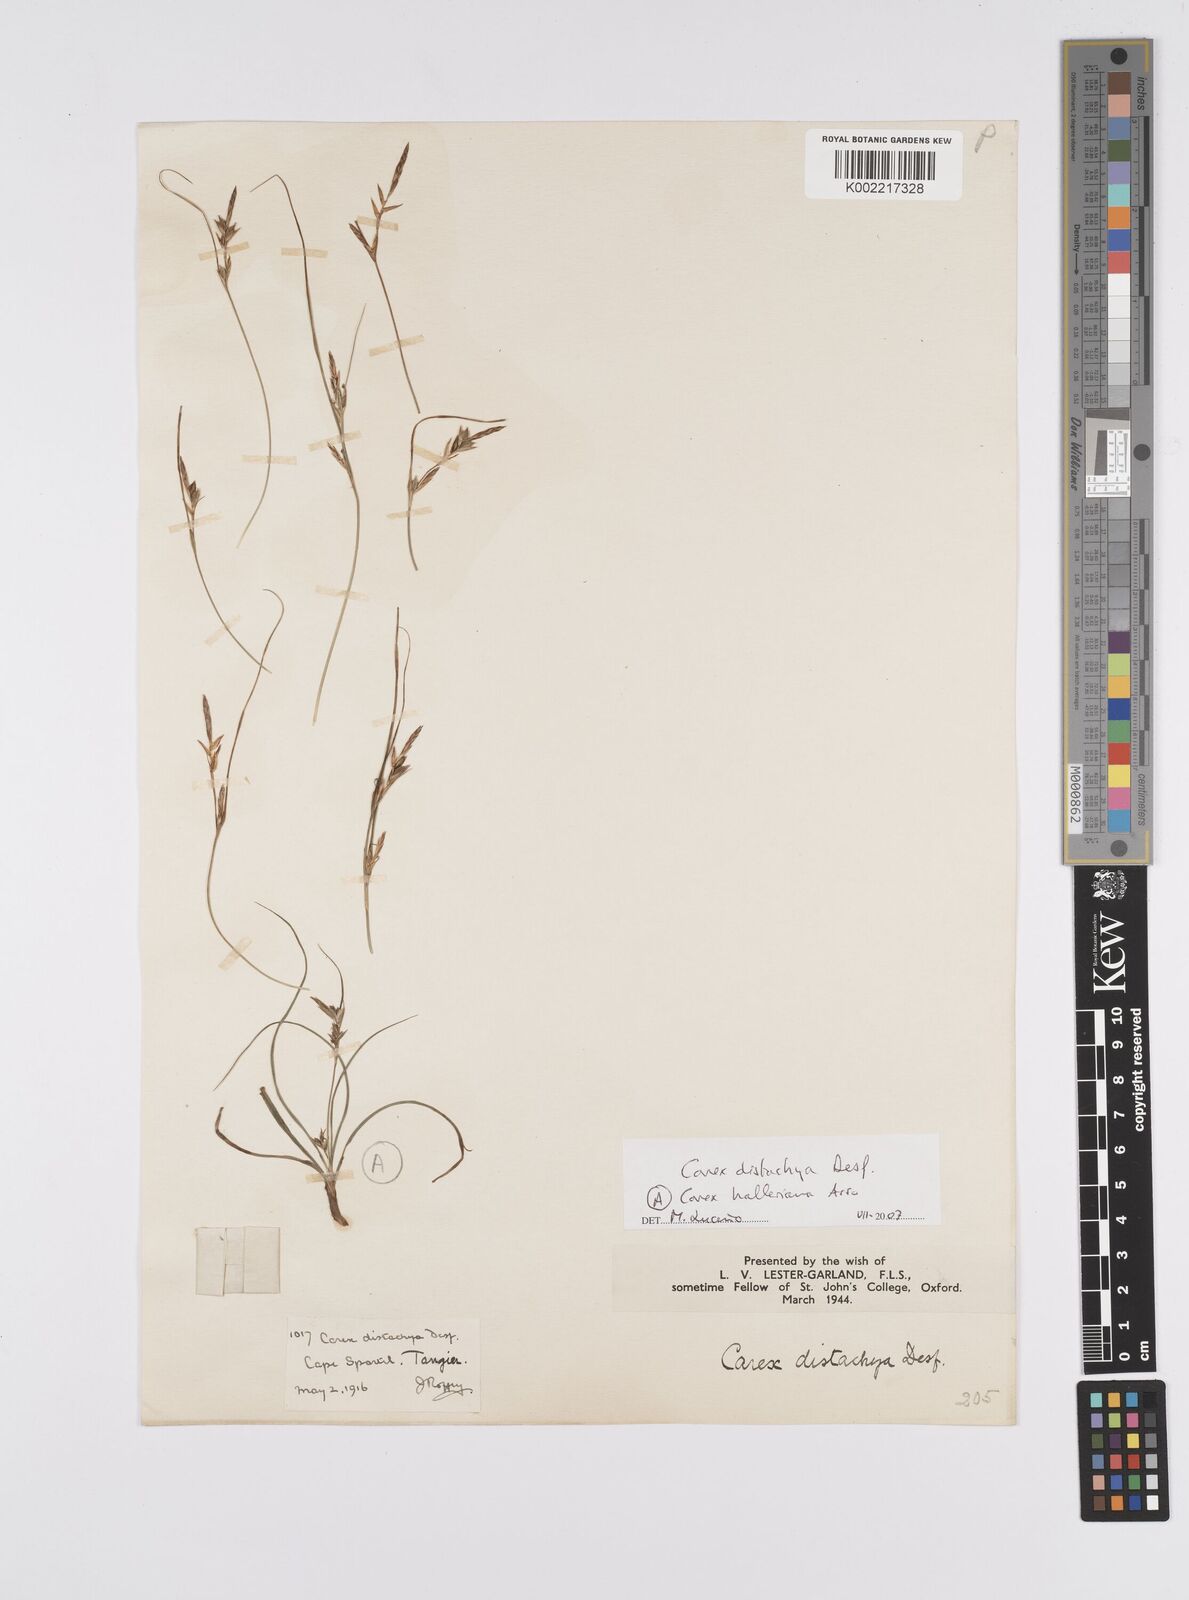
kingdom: Plantae
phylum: Tracheophyta
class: Liliopsida
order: Poales
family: Cyperaceae
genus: Carex
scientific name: Carex distachya
